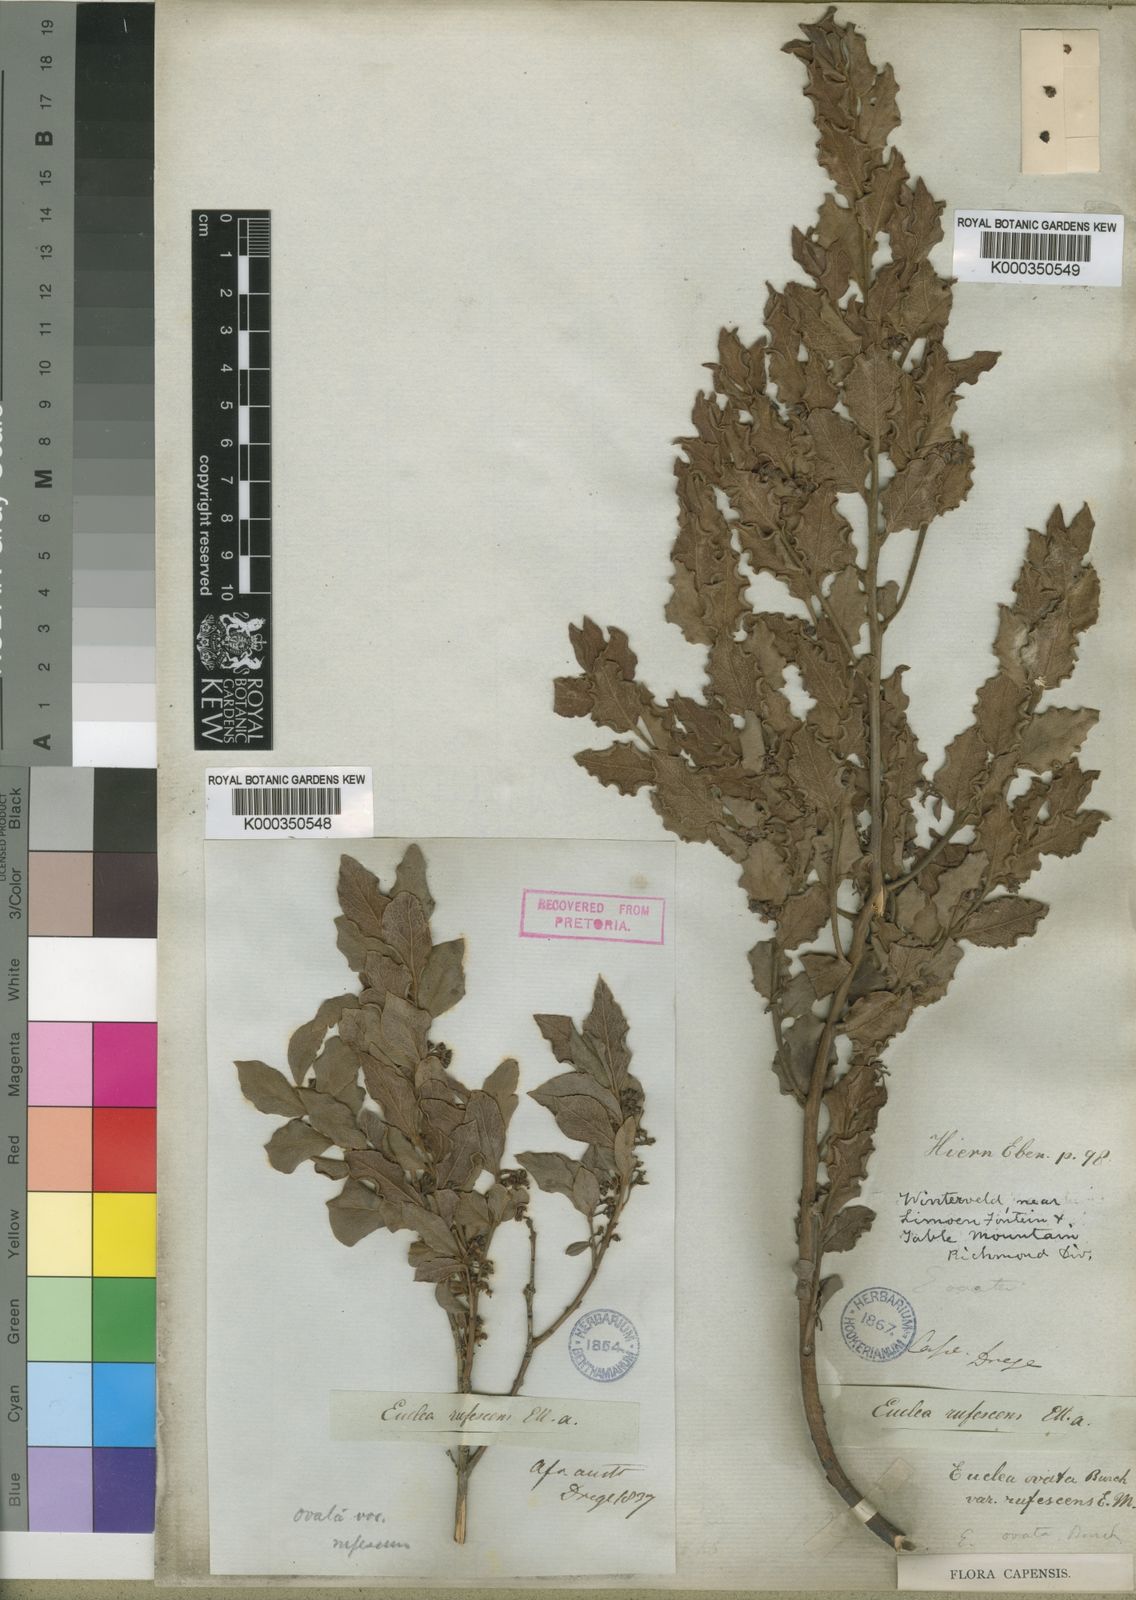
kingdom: Plantae
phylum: Tracheophyta
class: Magnoliopsida
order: Ericales
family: Ebenaceae
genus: Euclea
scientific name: Euclea
